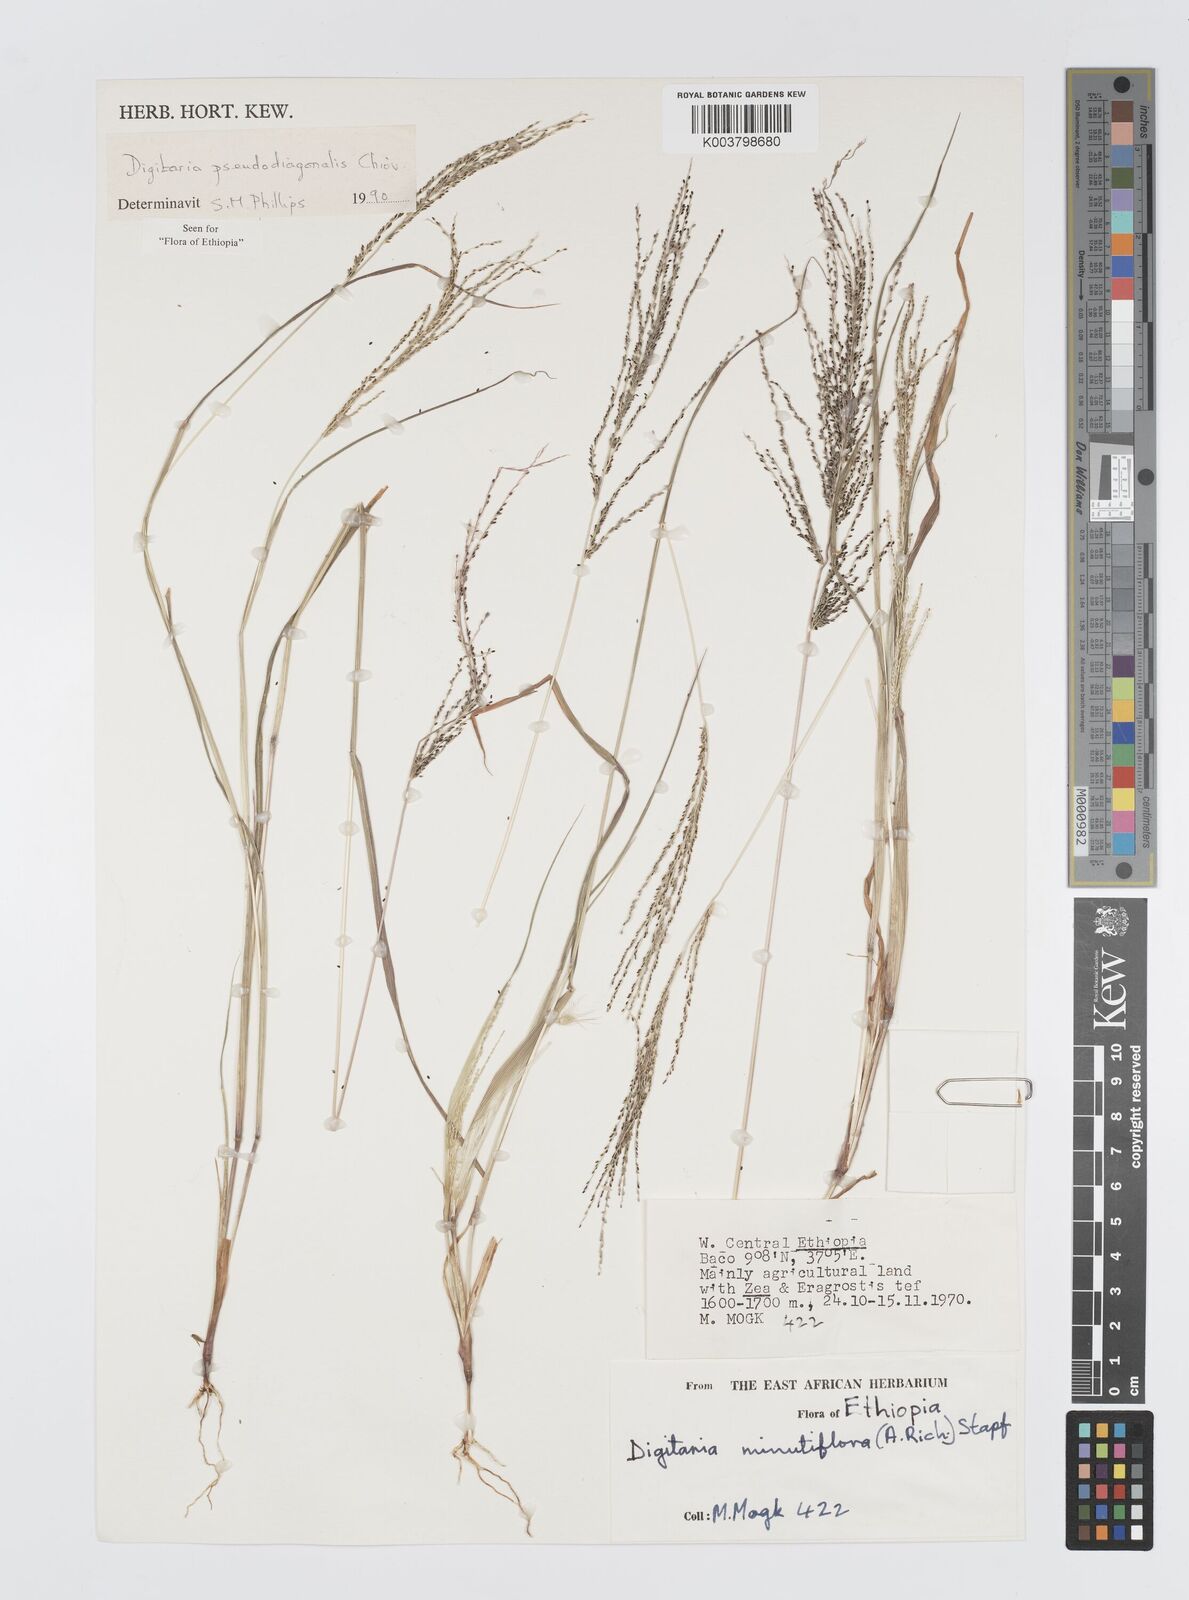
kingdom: Plantae
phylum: Tracheophyta
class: Liliopsida
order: Poales
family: Poaceae
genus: Digitaria
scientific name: Digitaria pseudodiagonalis
